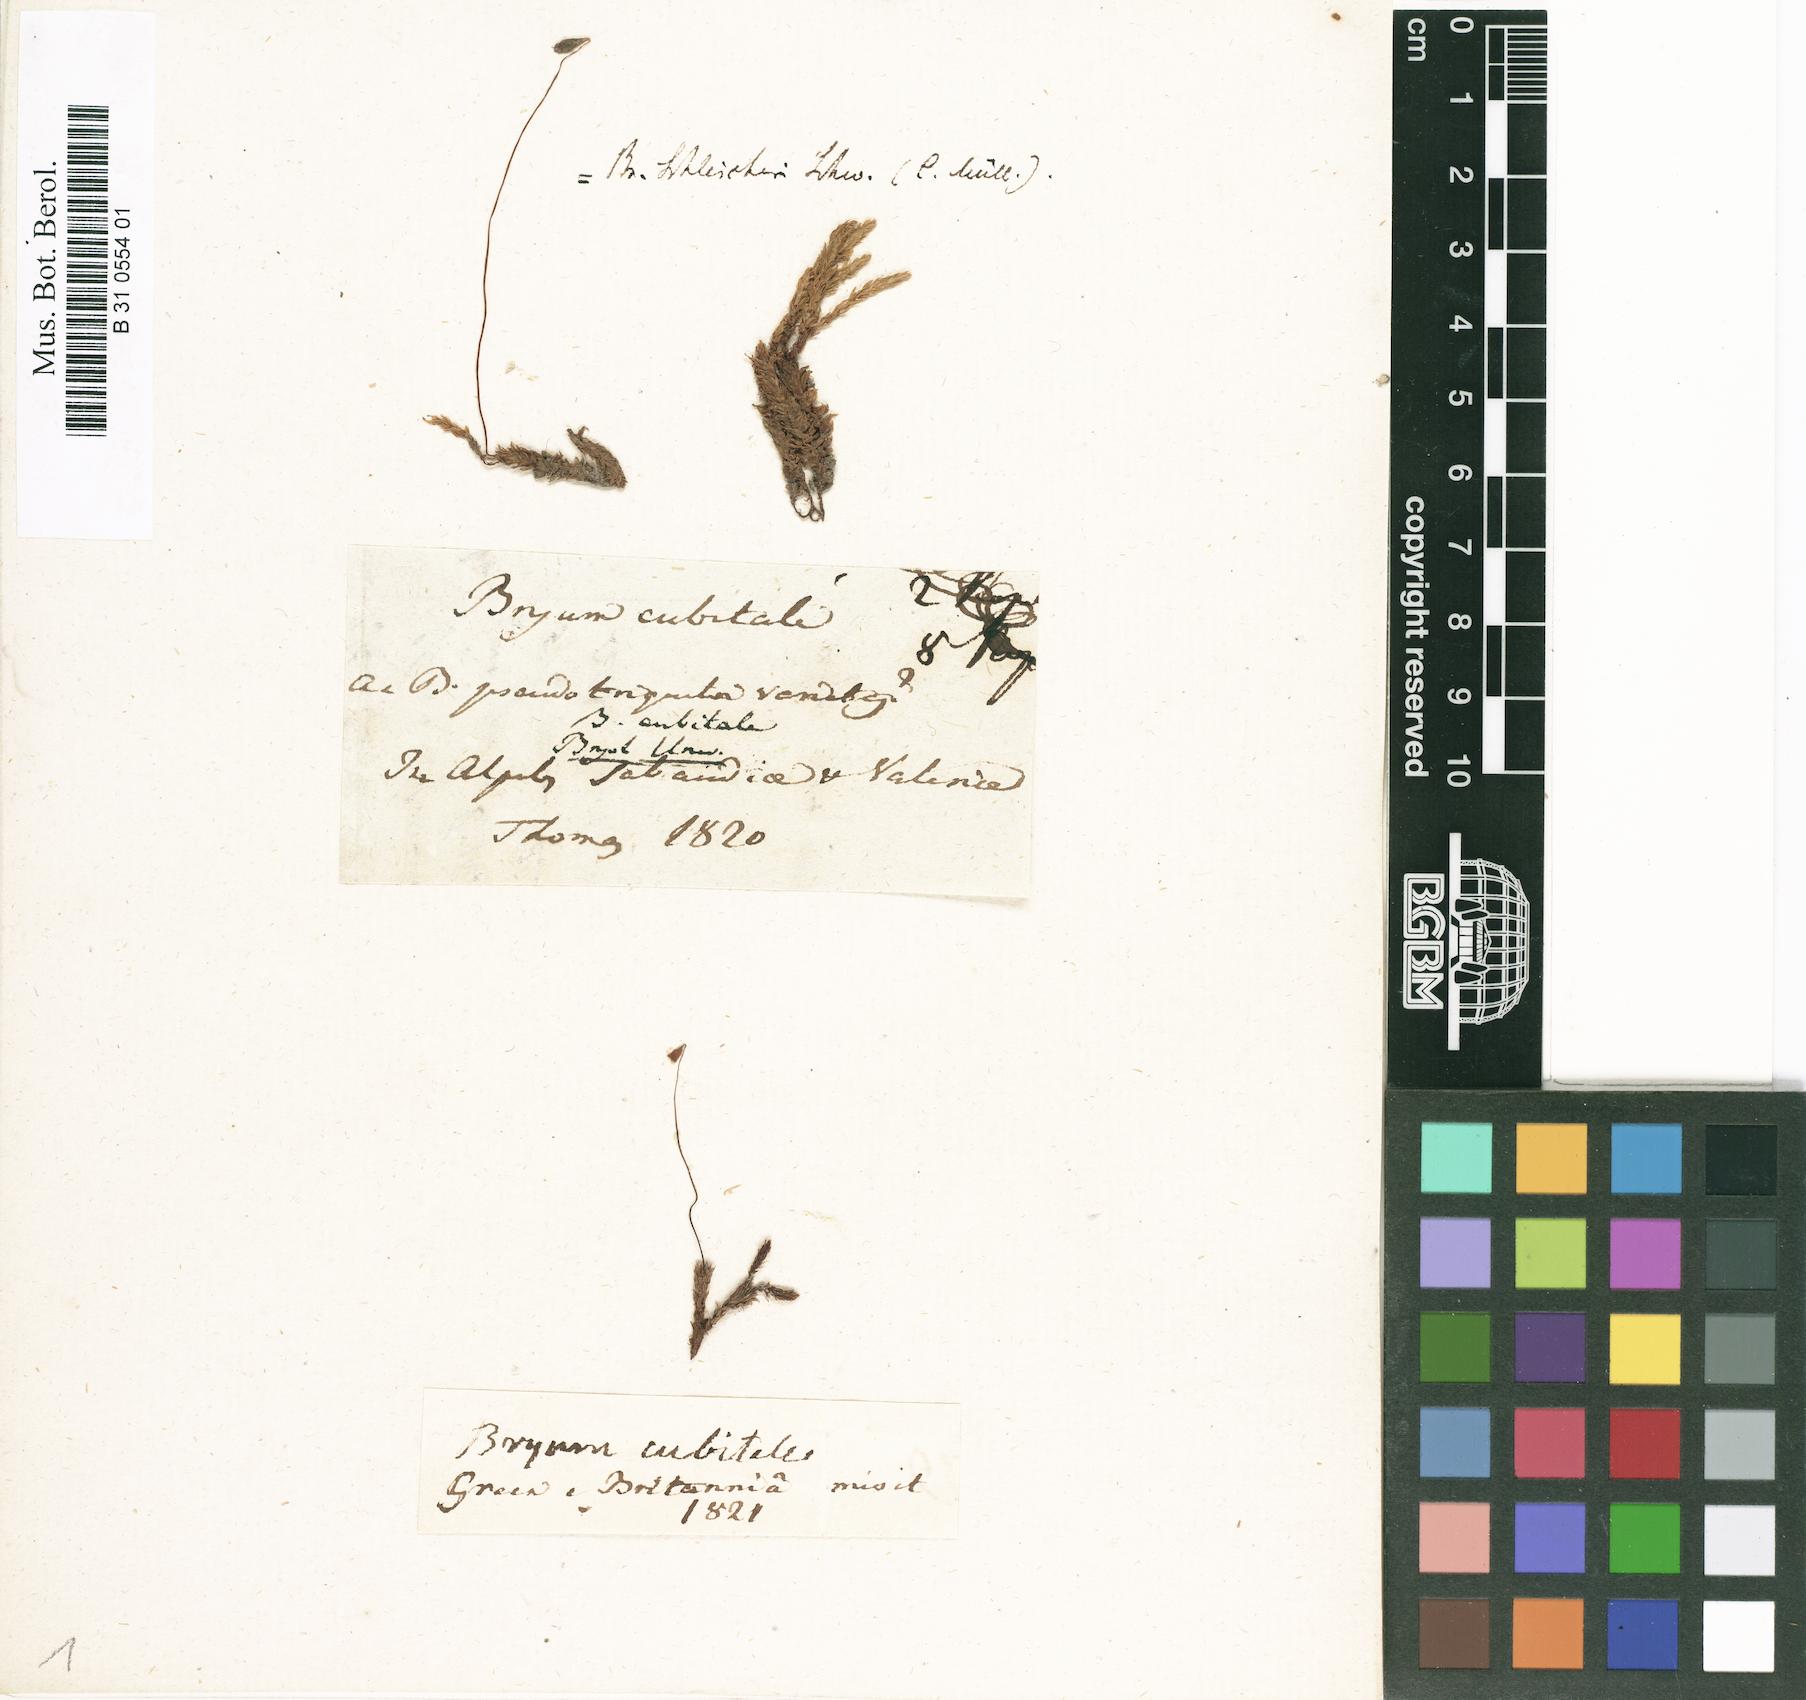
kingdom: Plantae
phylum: Bryophyta
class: Bryopsida
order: Bryales
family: Bryaceae
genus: Ptychostomum
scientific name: Ptychostomum pseudotriquetrum
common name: Long-leaved thread moss
